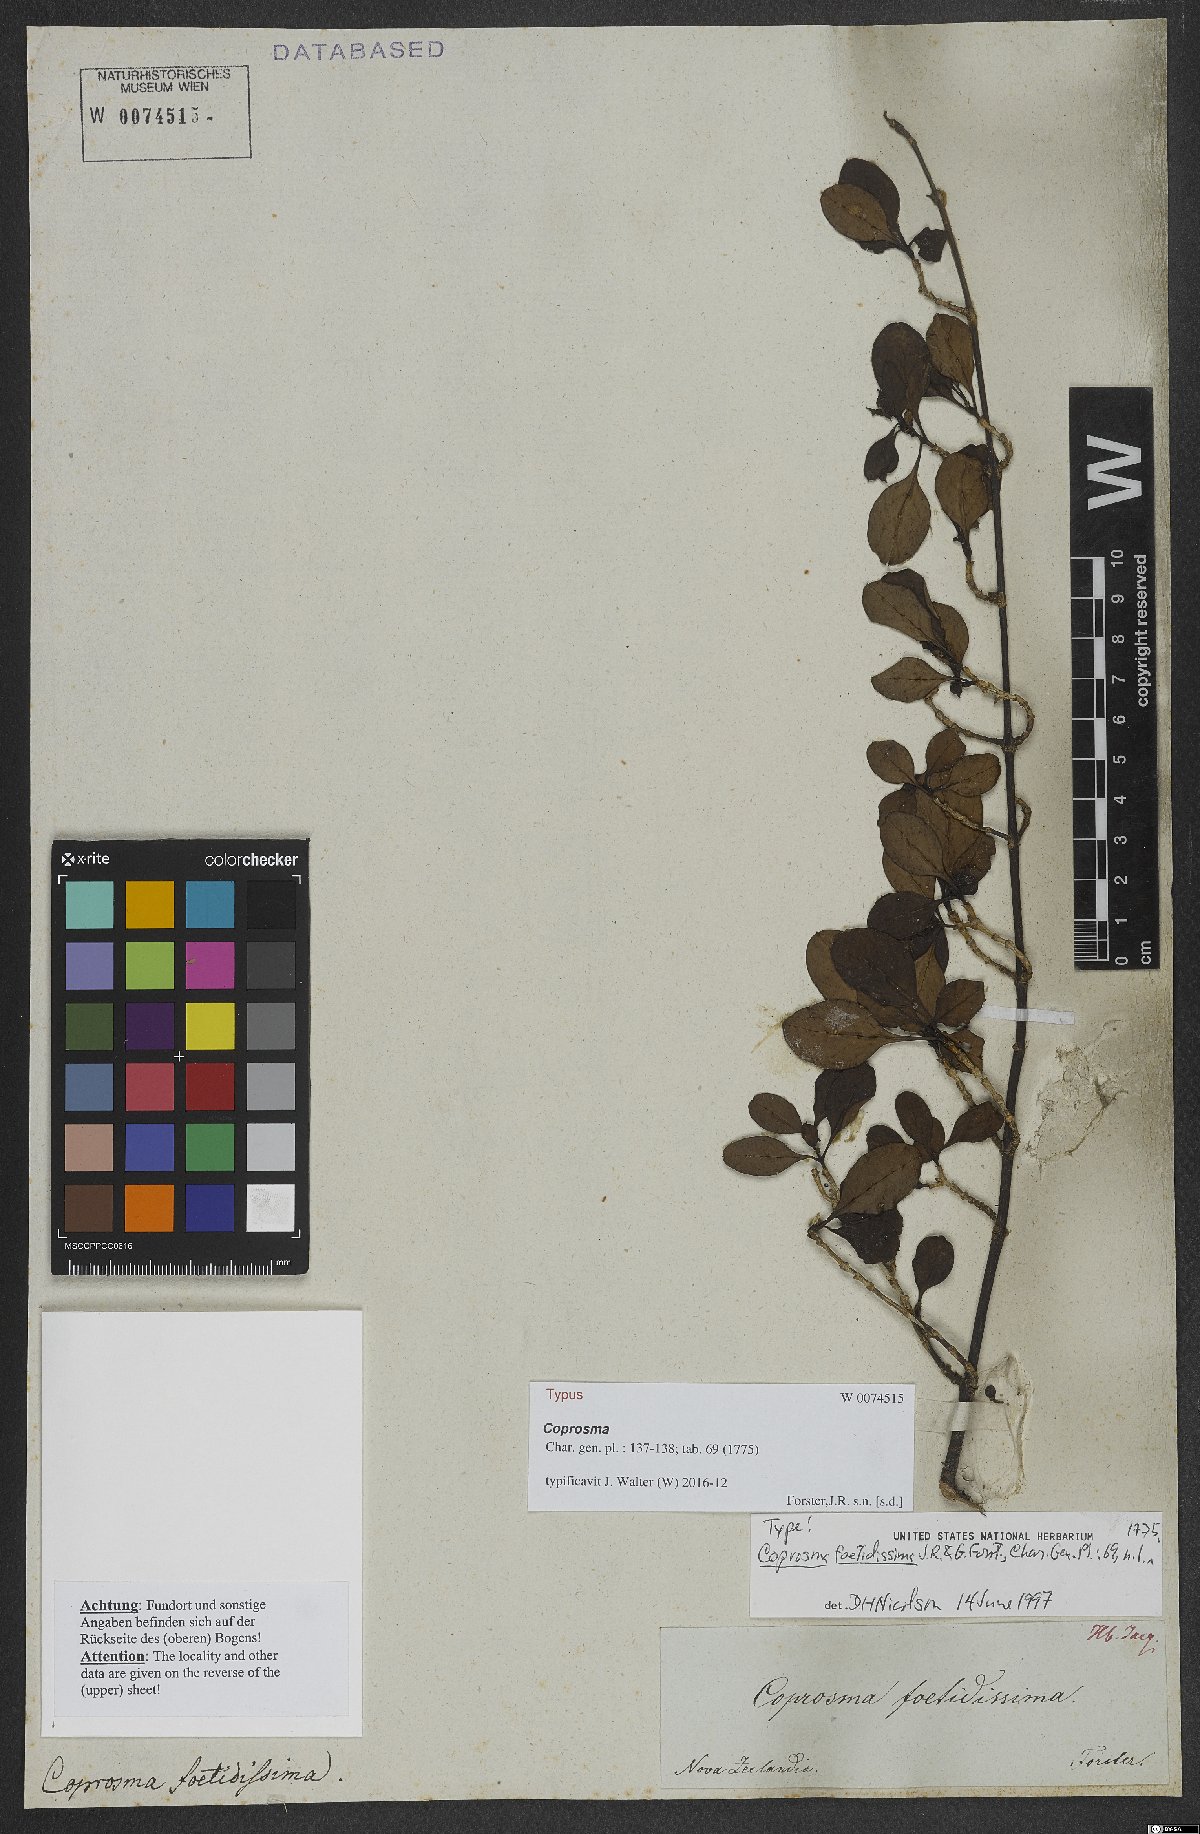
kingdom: Plantae
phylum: Tracheophyta
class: Magnoliopsida
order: Gentianales
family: Rubiaceae
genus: Coprosma
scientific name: Coprosma foetidissima
